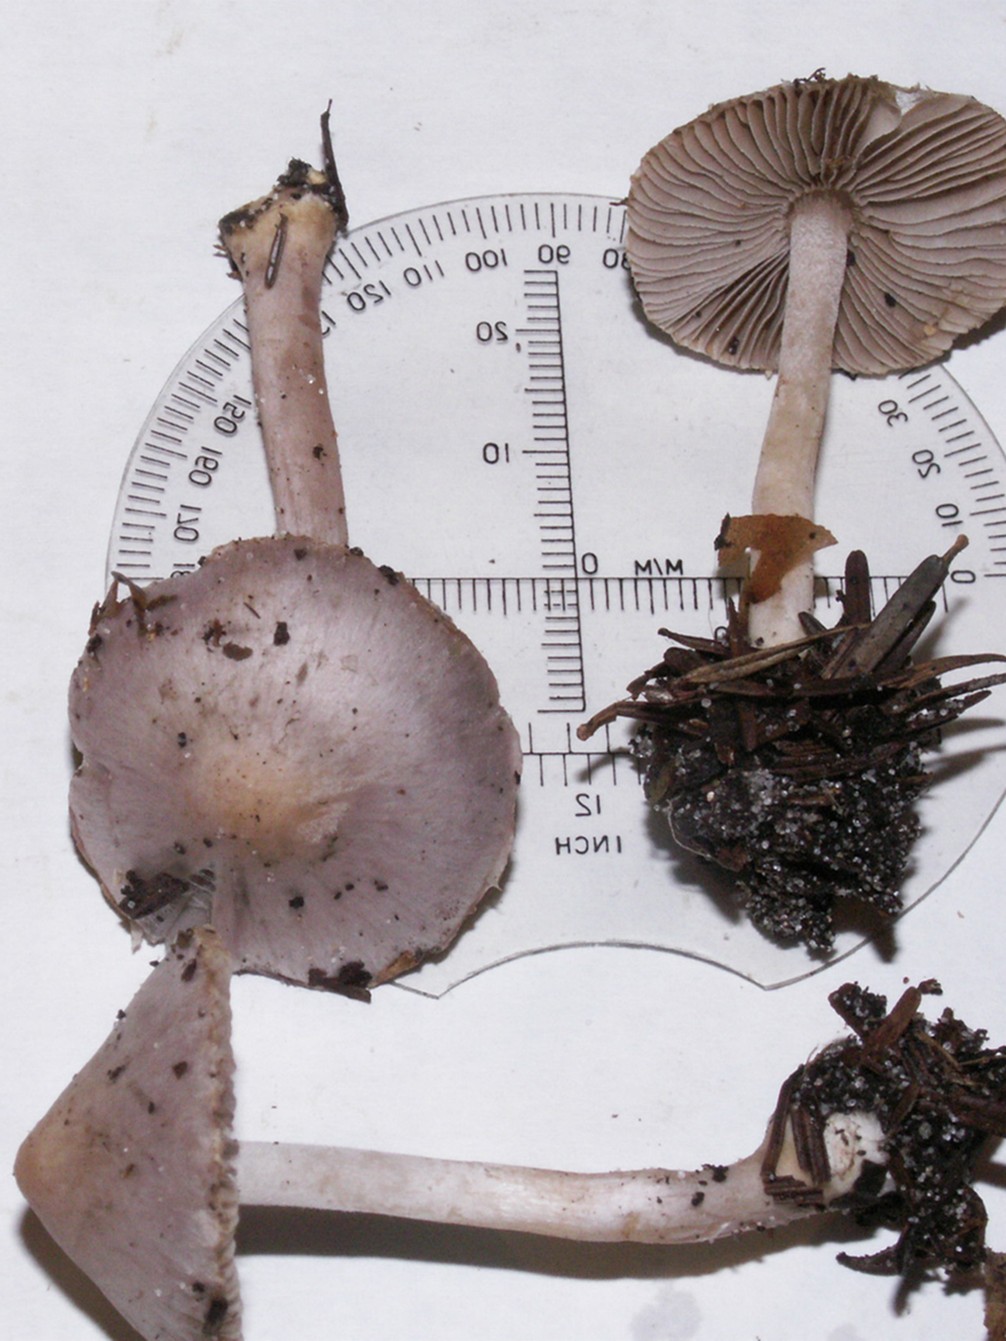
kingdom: Fungi
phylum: Basidiomycota
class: Agaricomycetes
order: Agaricales
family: Inocybaceae
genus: Inocybe
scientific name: Inocybe geophylla
